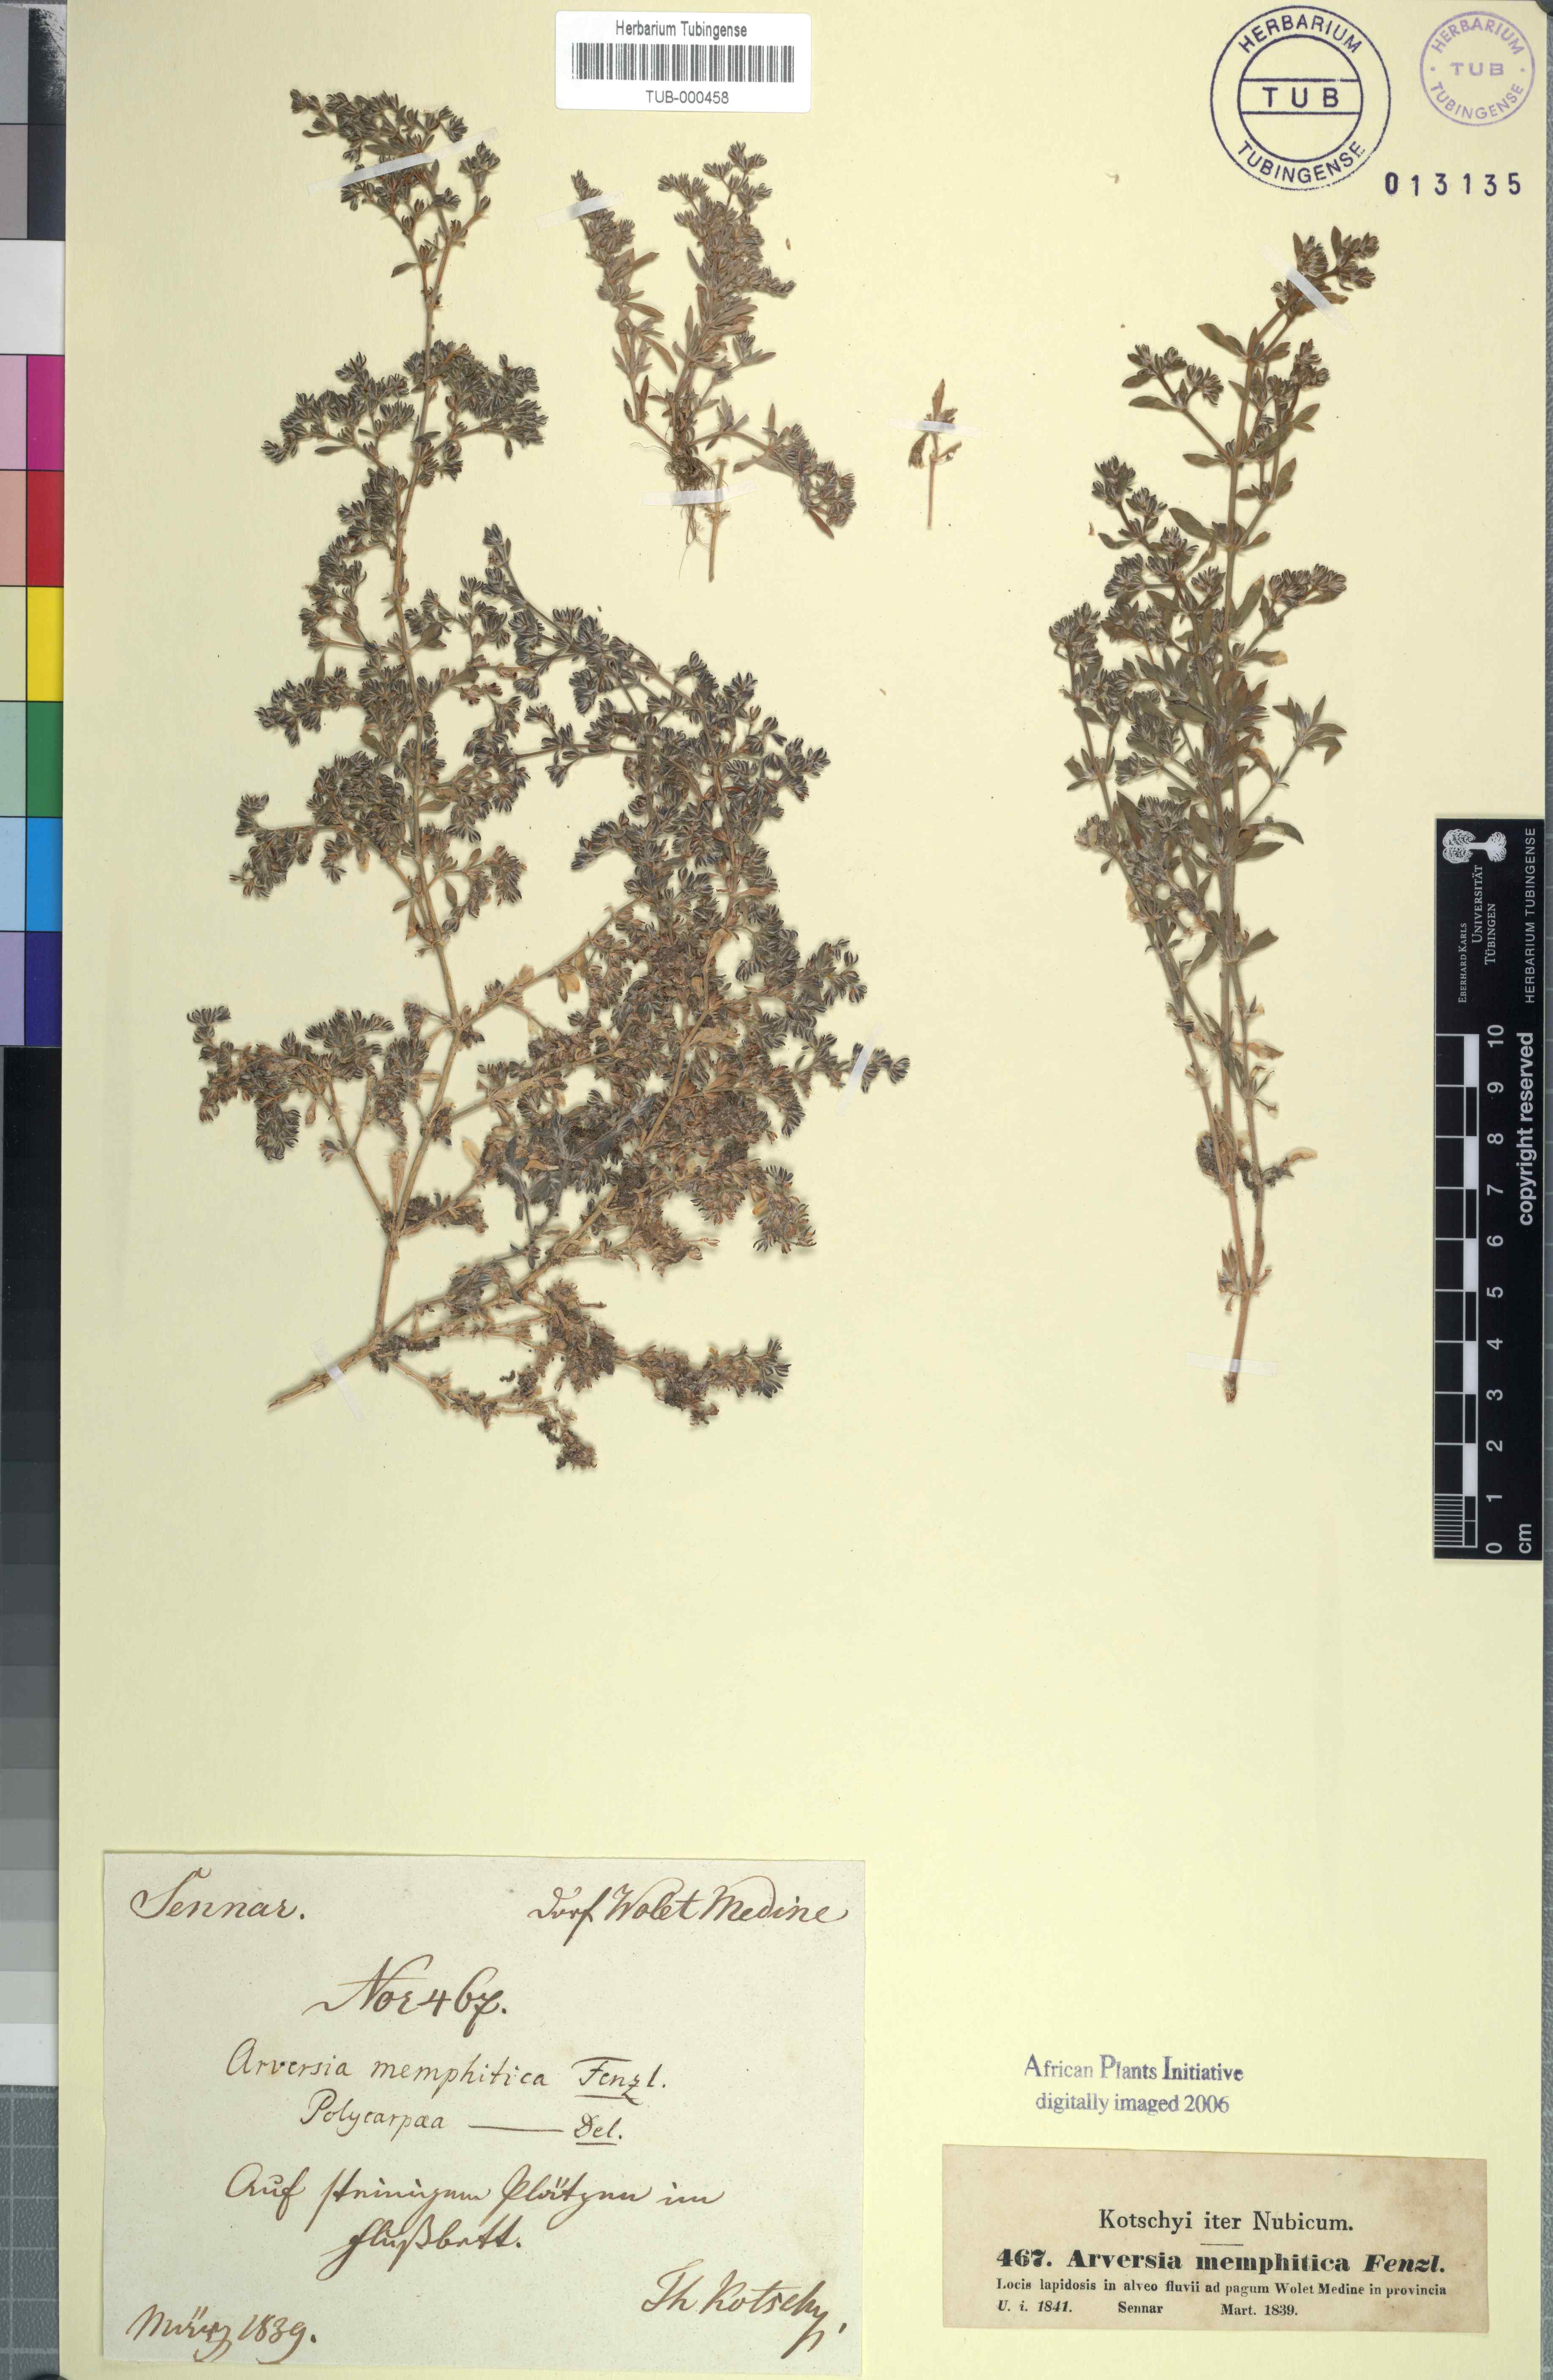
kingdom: Plantae
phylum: Tracheophyta
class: Magnoliopsida
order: Caryophyllales
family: Caryophyllaceae
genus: Drymaria
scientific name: Drymaria cordata
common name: Whitesnow
